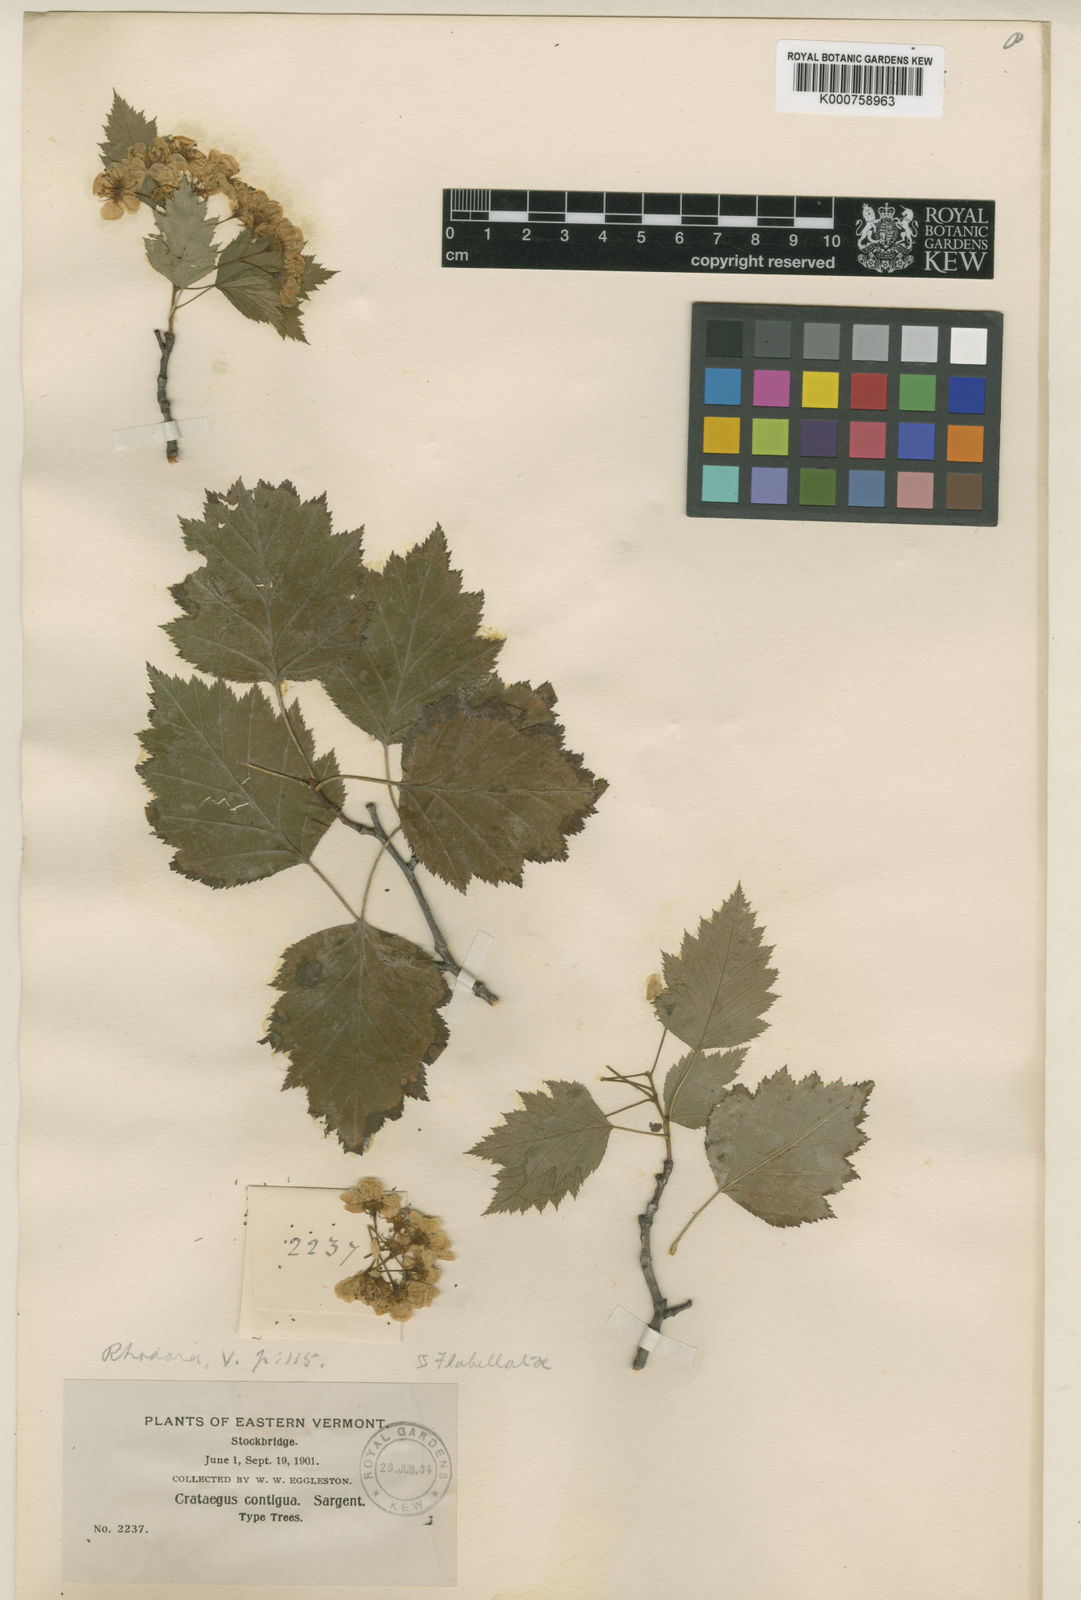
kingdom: Plantae
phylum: Tracheophyta
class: Magnoliopsida
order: Rosales
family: Rosaceae
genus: Crataegus
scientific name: Crataegus contigua
